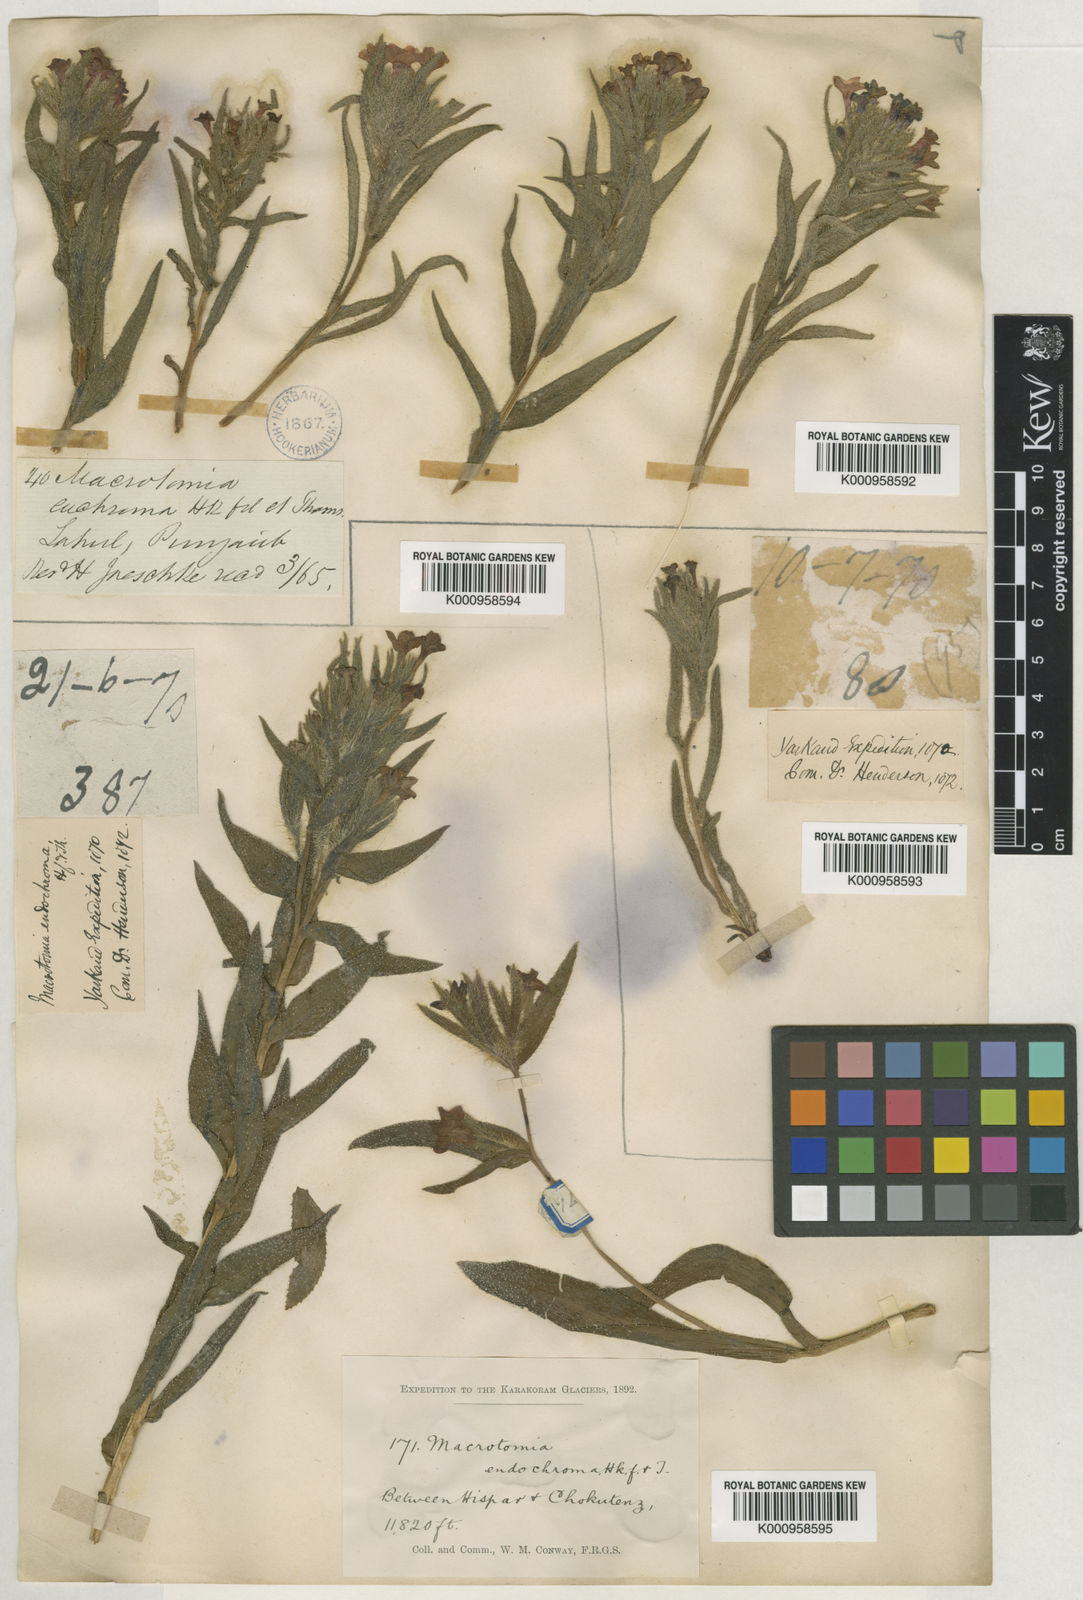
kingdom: Plantae
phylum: Tracheophyta
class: Magnoliopsida
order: Boraginales
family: Boraginaceae
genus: Arnebia
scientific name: Arnebia euchroma
